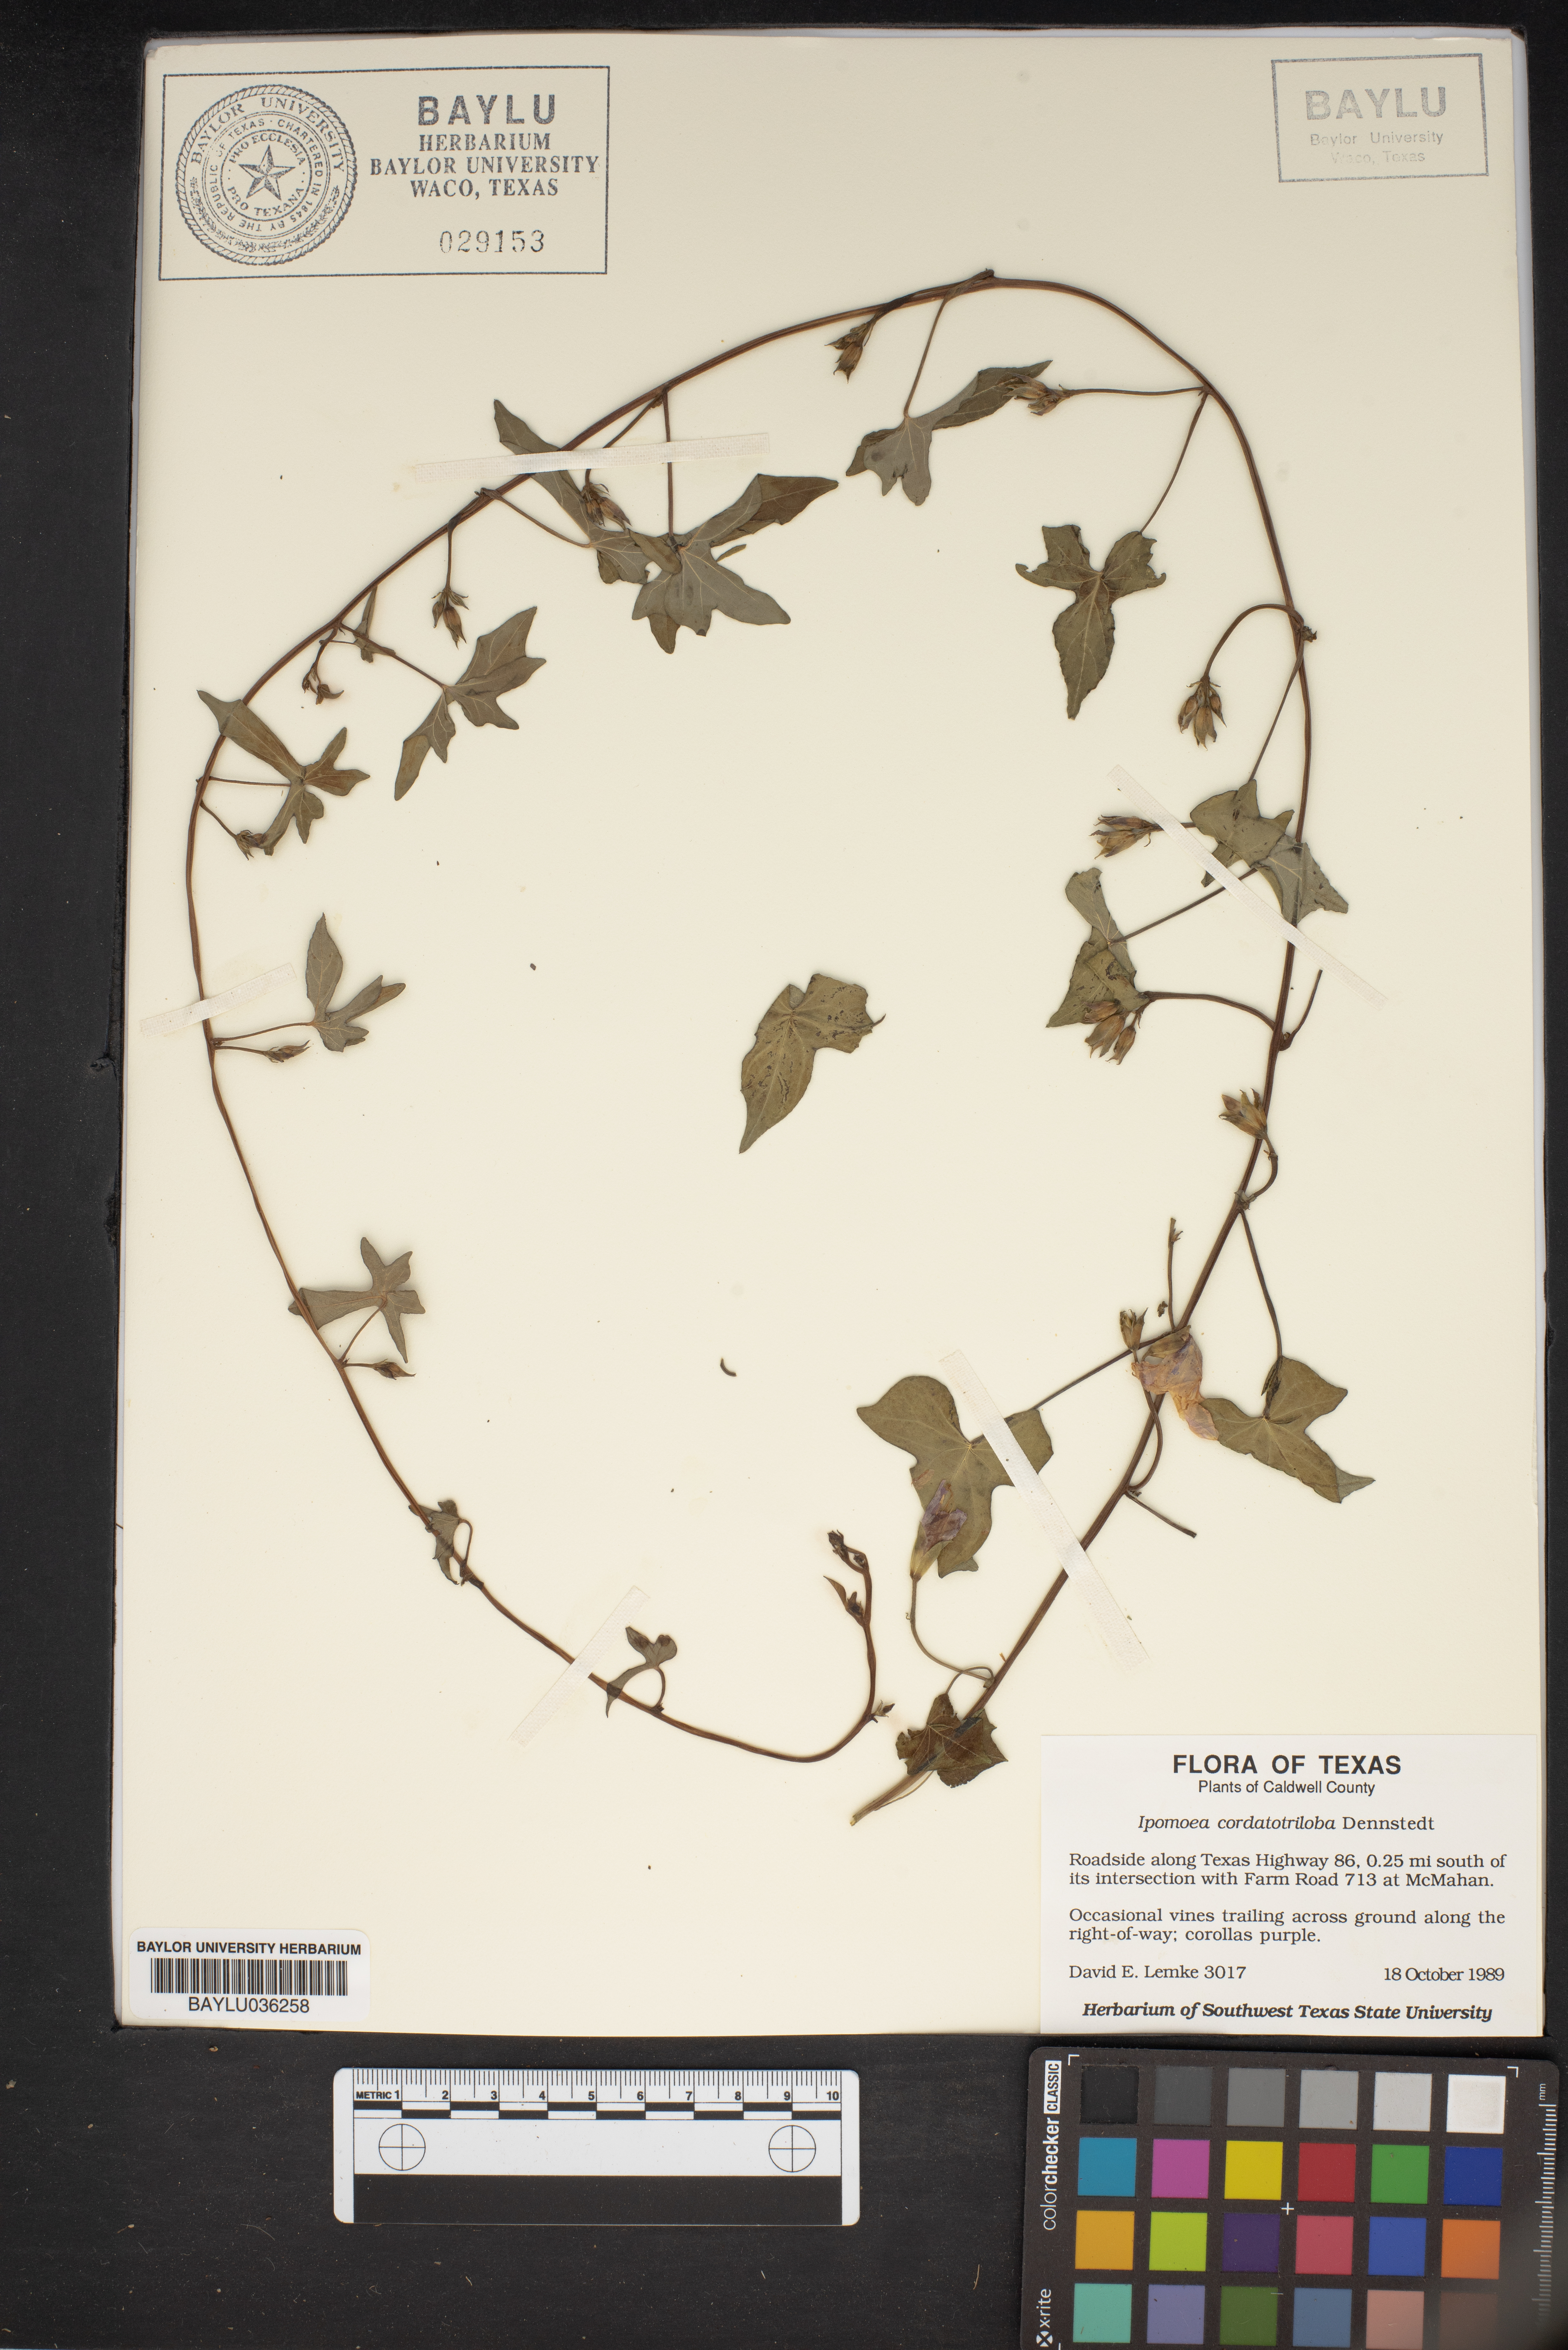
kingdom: Plantae
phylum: Tracheophyta
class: Magnoliopsida
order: Solanales
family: Convolvulaceae
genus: Ipomoea
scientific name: Ipomoea cordatotriloba
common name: Cotton morning glory
